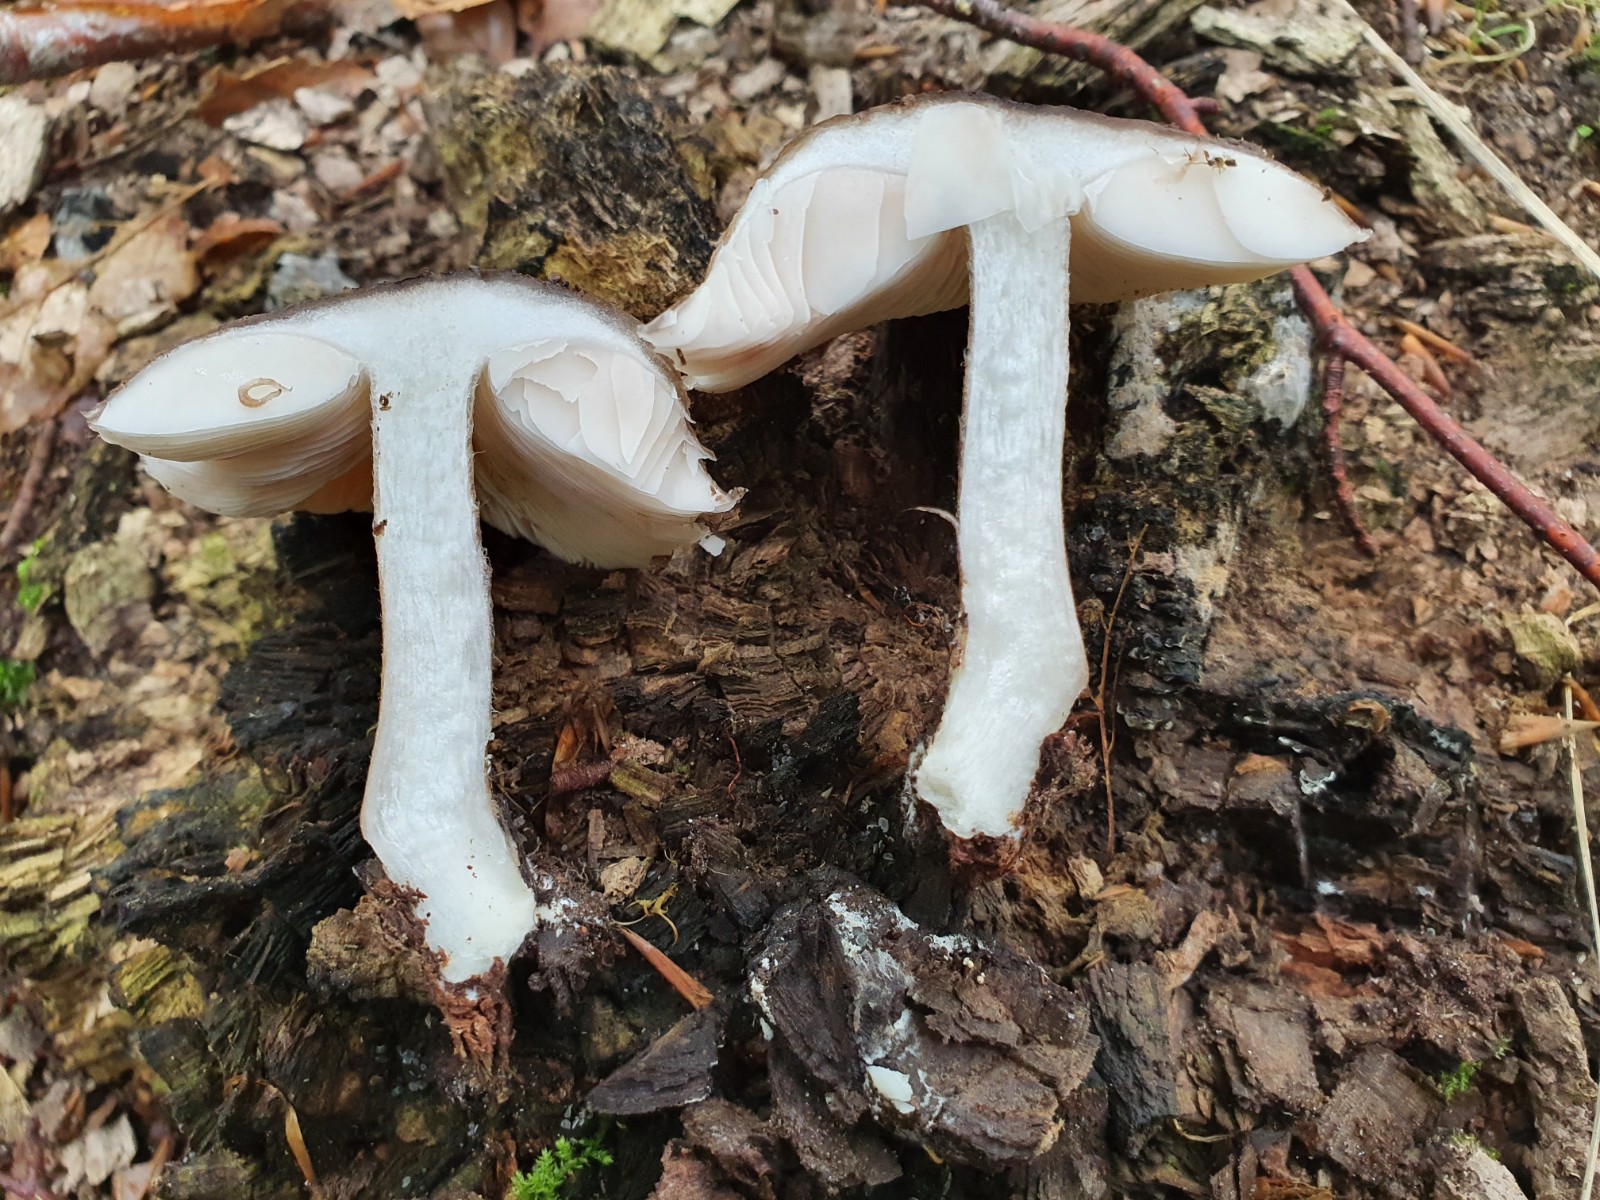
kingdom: Fungi
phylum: Basidiomycota
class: Agaricomycetes
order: Agaricales
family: Pluteaceae
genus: Pluteus
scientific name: Pluteus cervinus
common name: sodfarvet skærmhat
